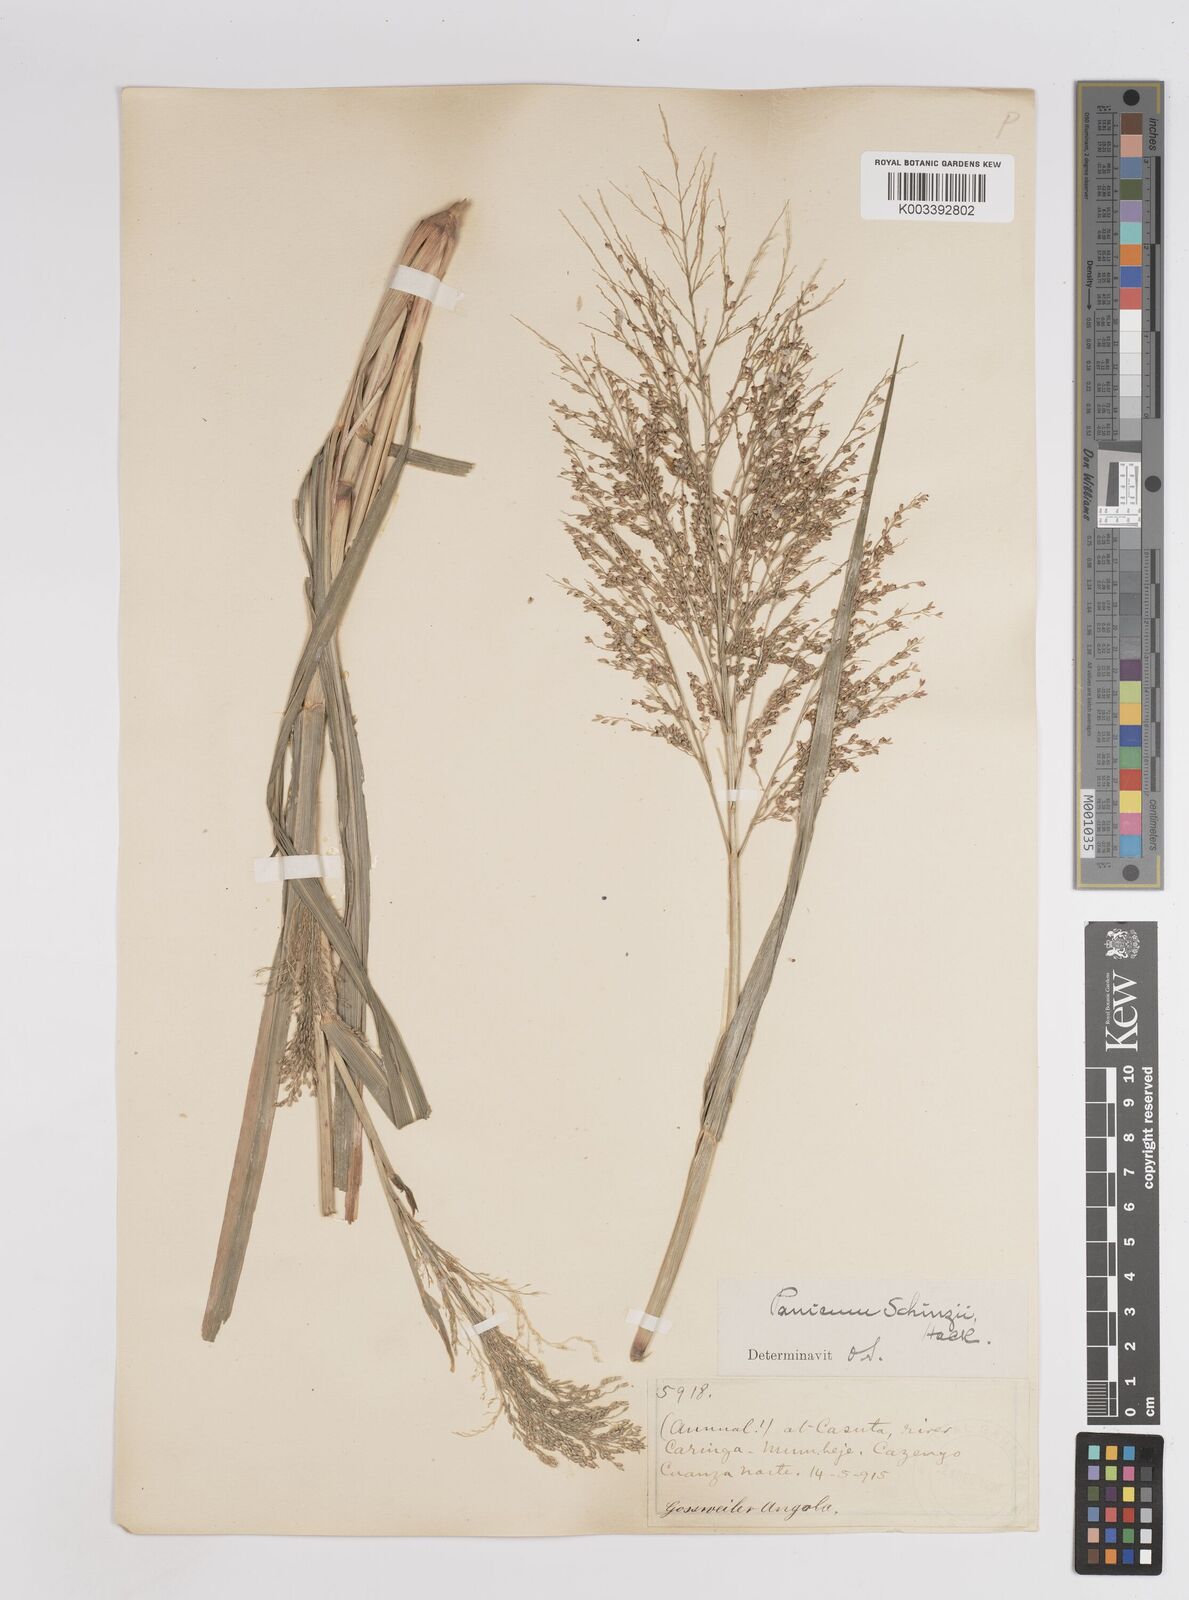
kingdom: Plantae
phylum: Tracheophyta
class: Liliopsida
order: Poales
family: Poaceae
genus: Panicum
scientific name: Panicum schinzii
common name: Sweet grass
